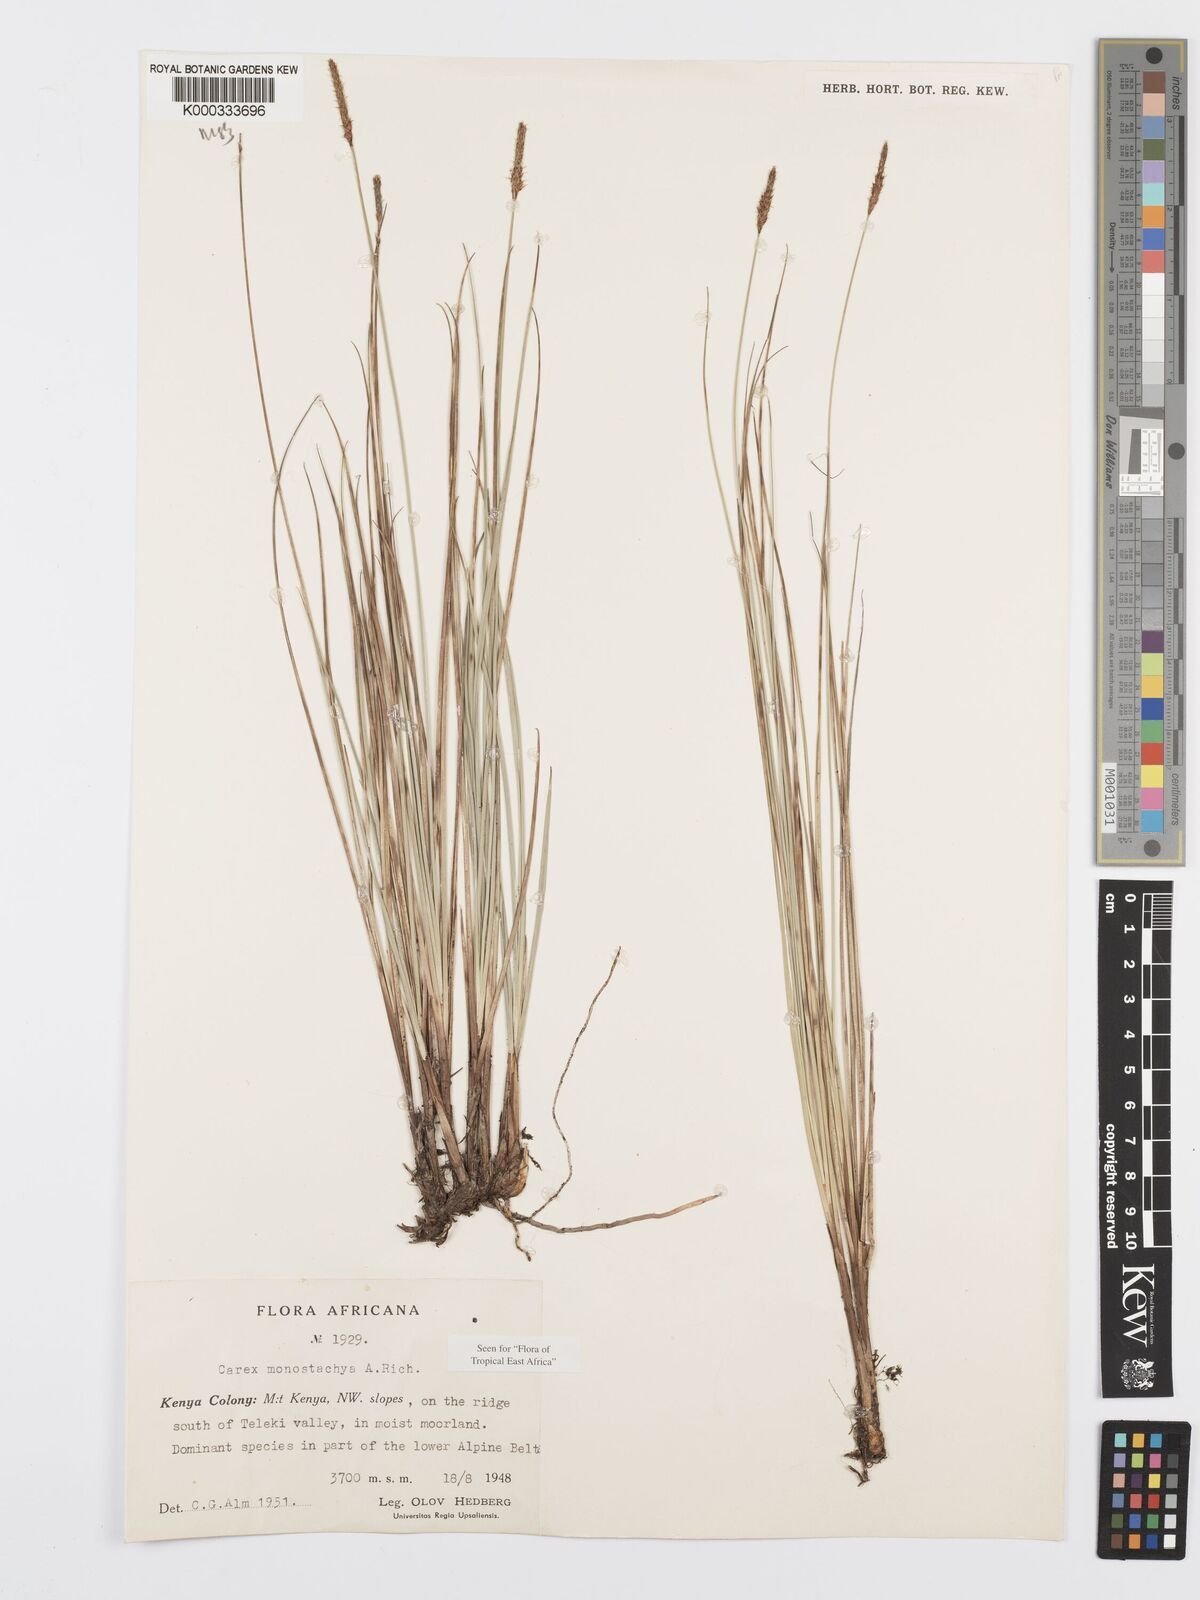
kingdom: Plantae
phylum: Tracheophyta
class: Liliopsida
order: Poales
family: Cyperaceae
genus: Carex
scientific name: Carex monostachya
